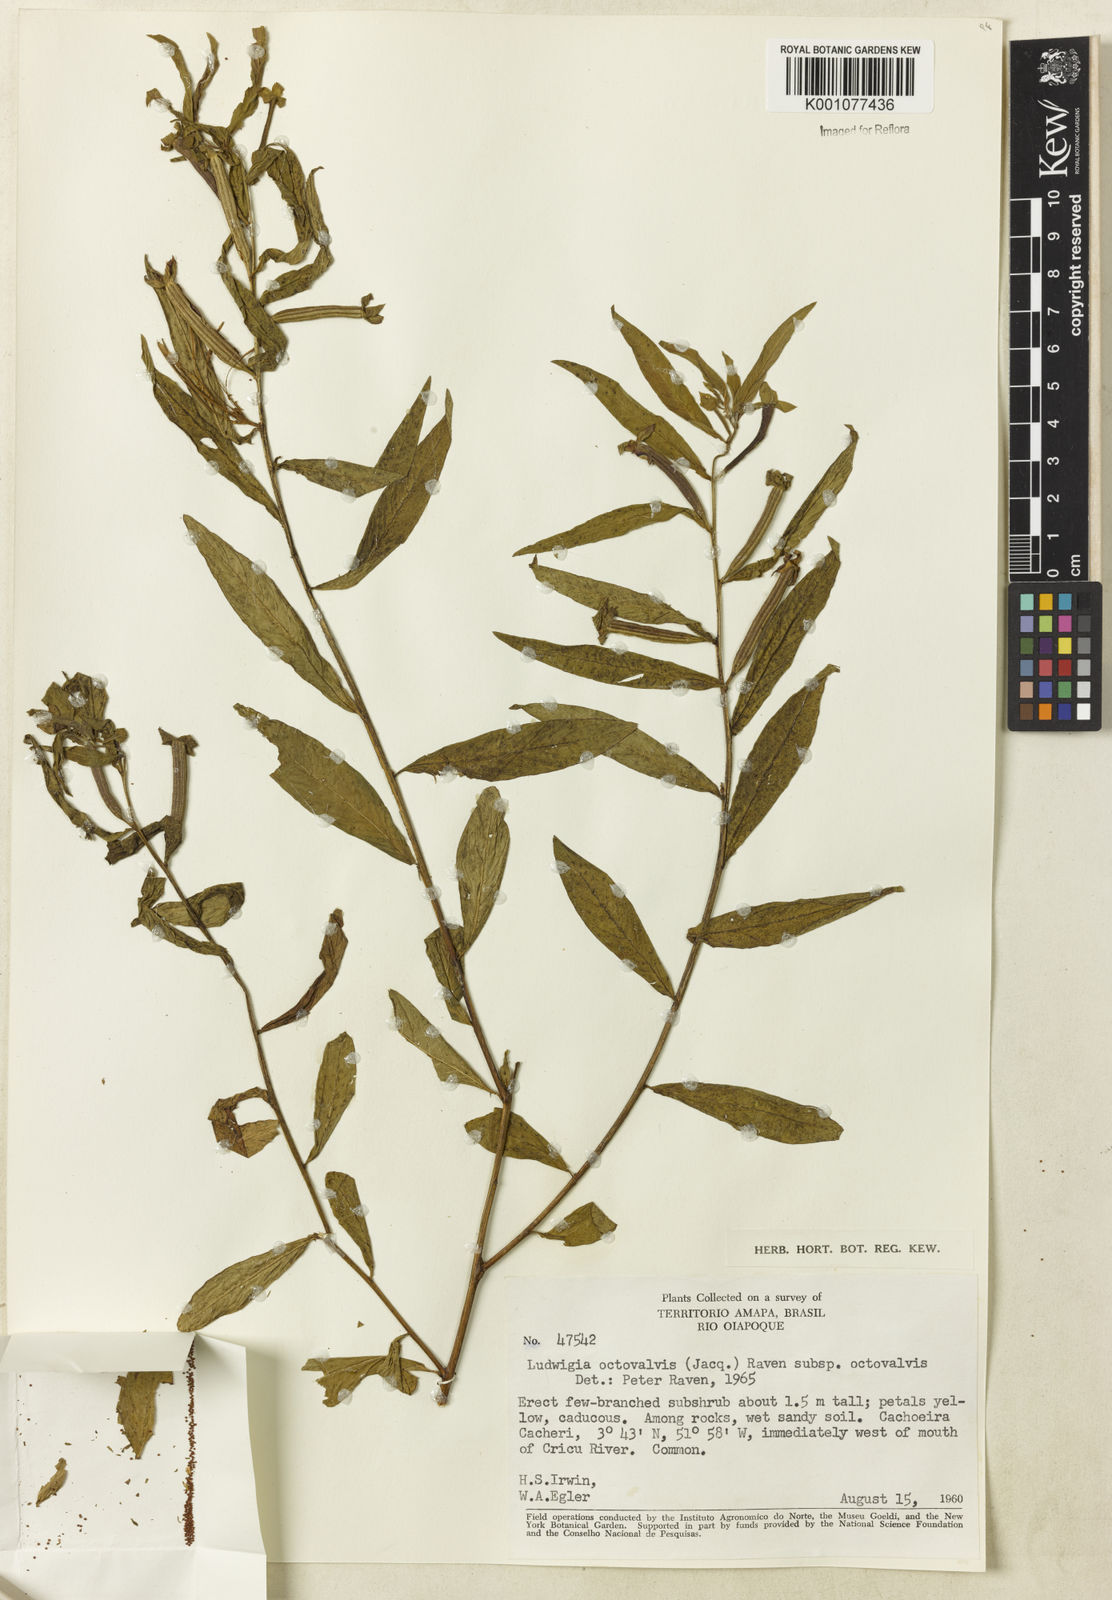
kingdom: Plantae
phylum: Tracheophyta
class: Magnoliopsida
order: Myrtales
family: Onagraceae
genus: Ludwigia
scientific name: Ludwigia octovalvis
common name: Water-primrose
